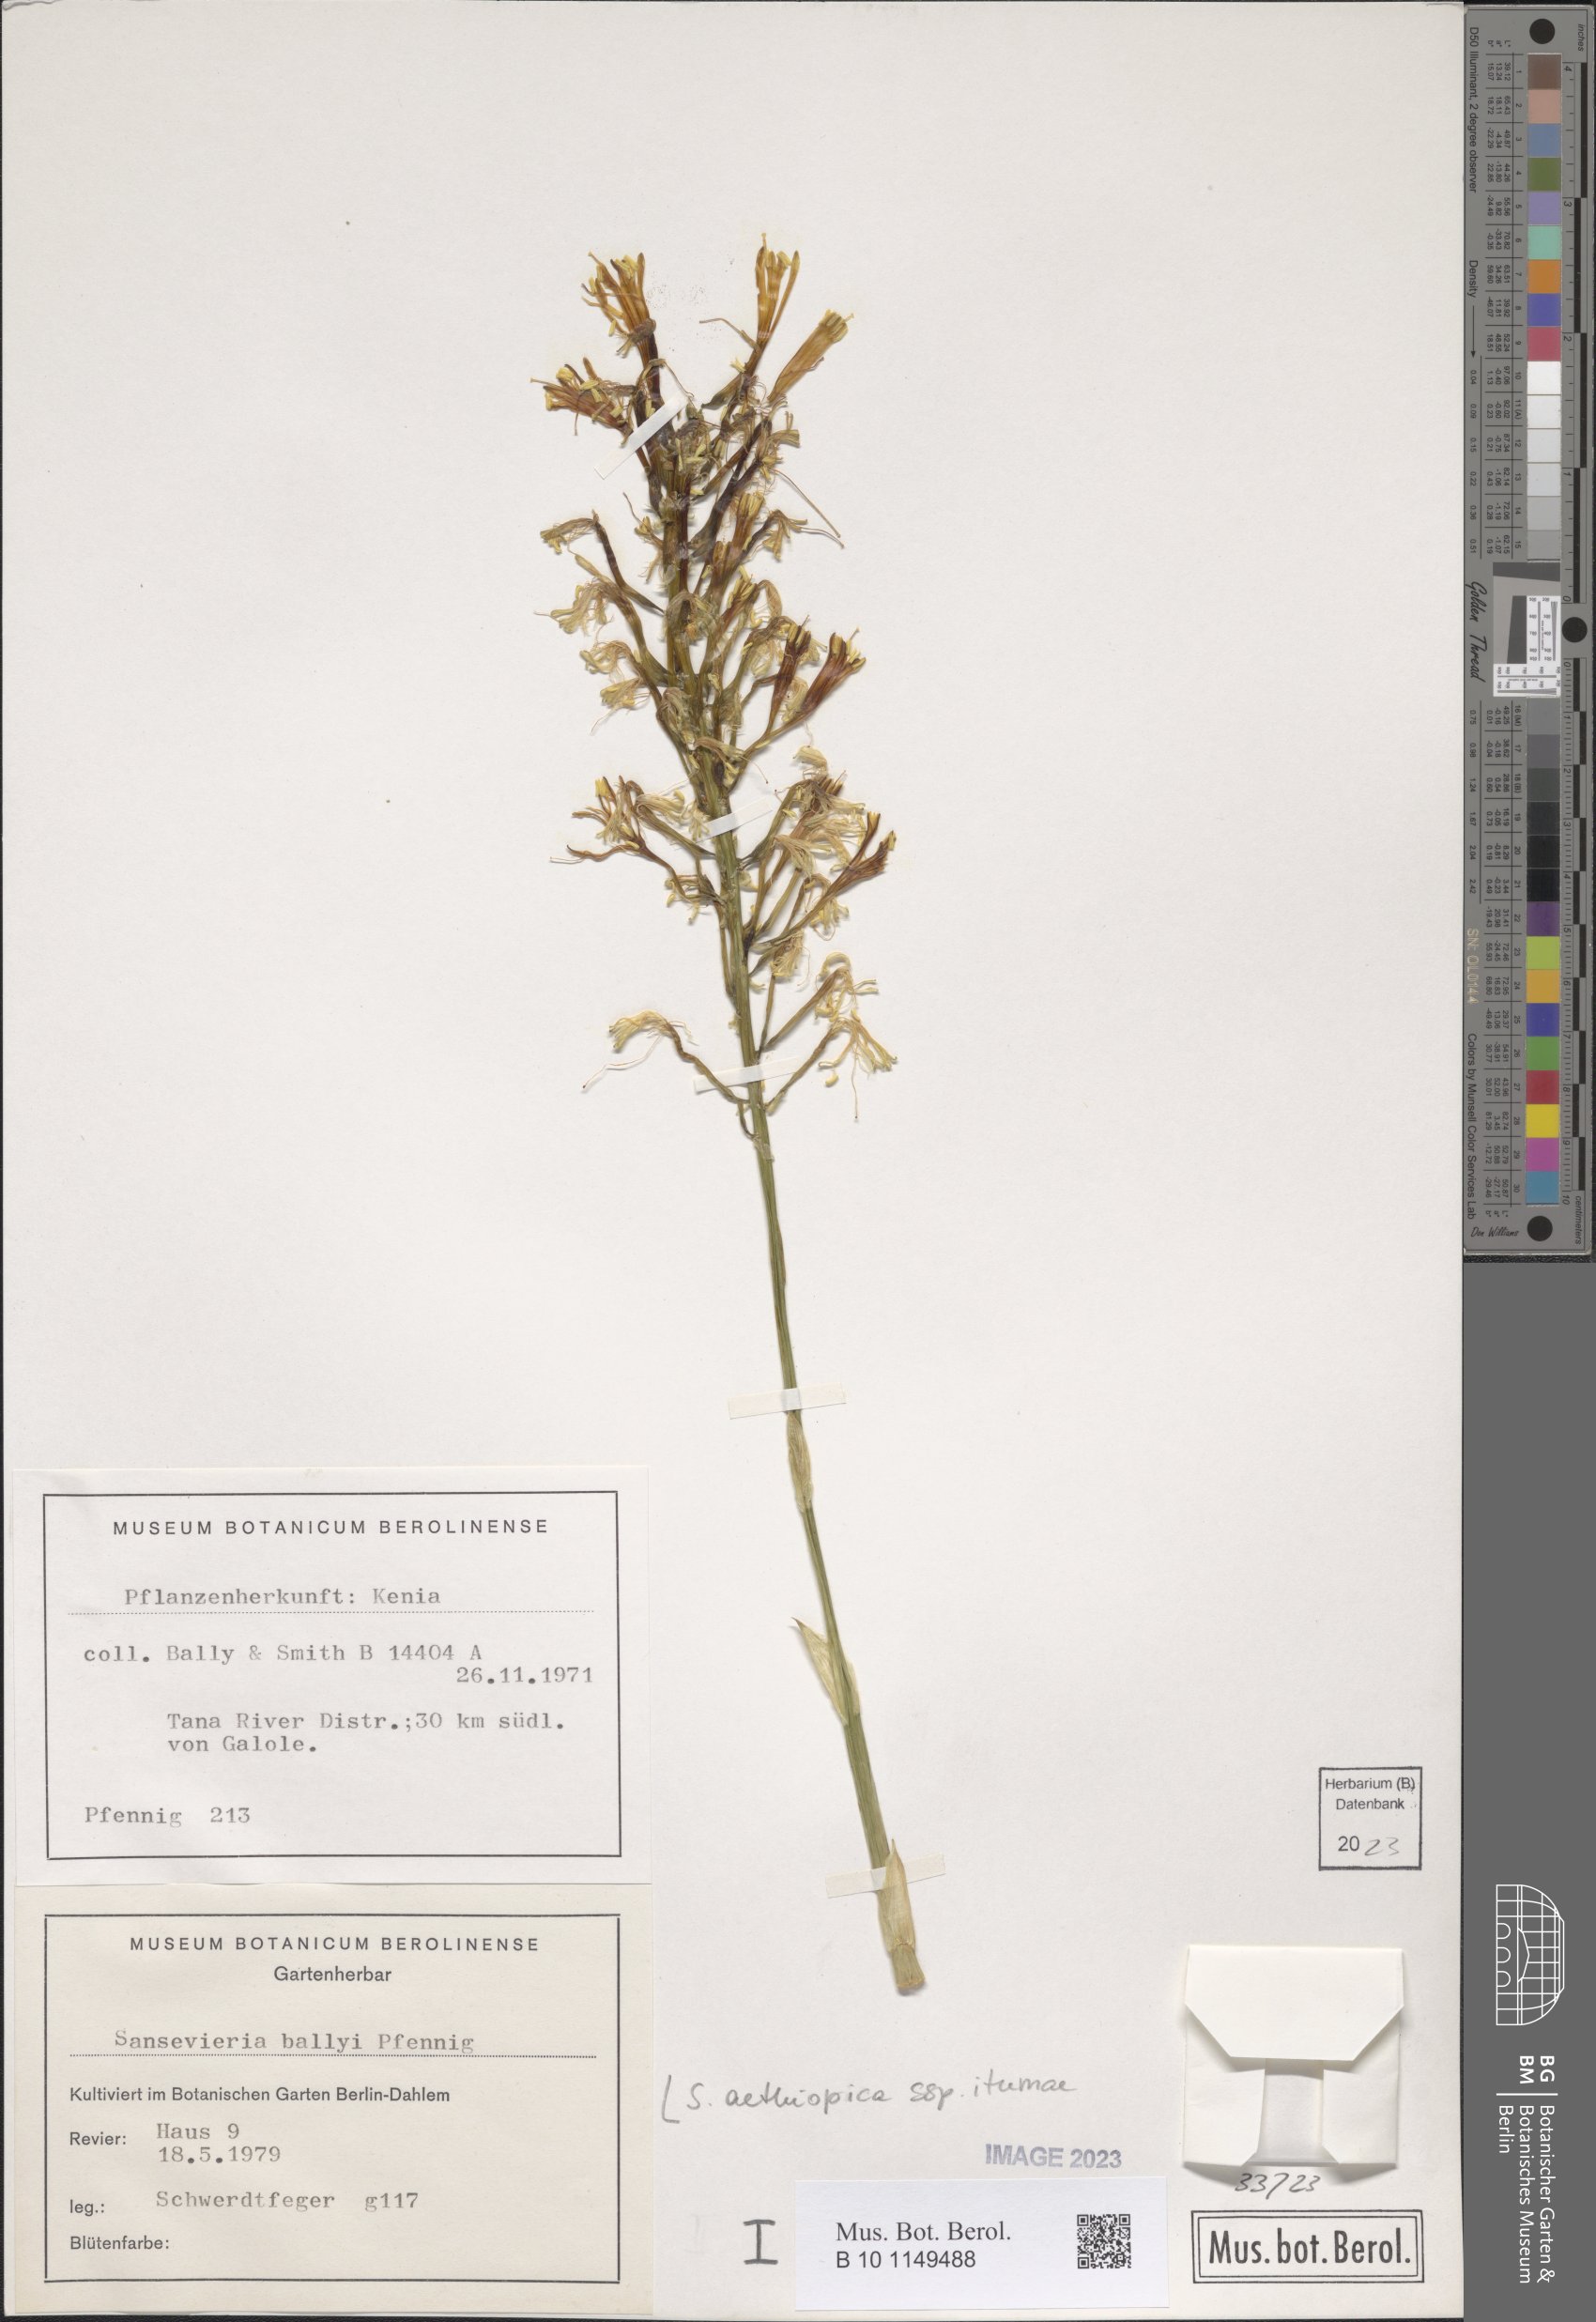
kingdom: Plantae
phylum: Tracheophyta
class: Liliopsida
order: Asparagales
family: Asparagaceae
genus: Sansevieria
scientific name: Sansevieria itumea
